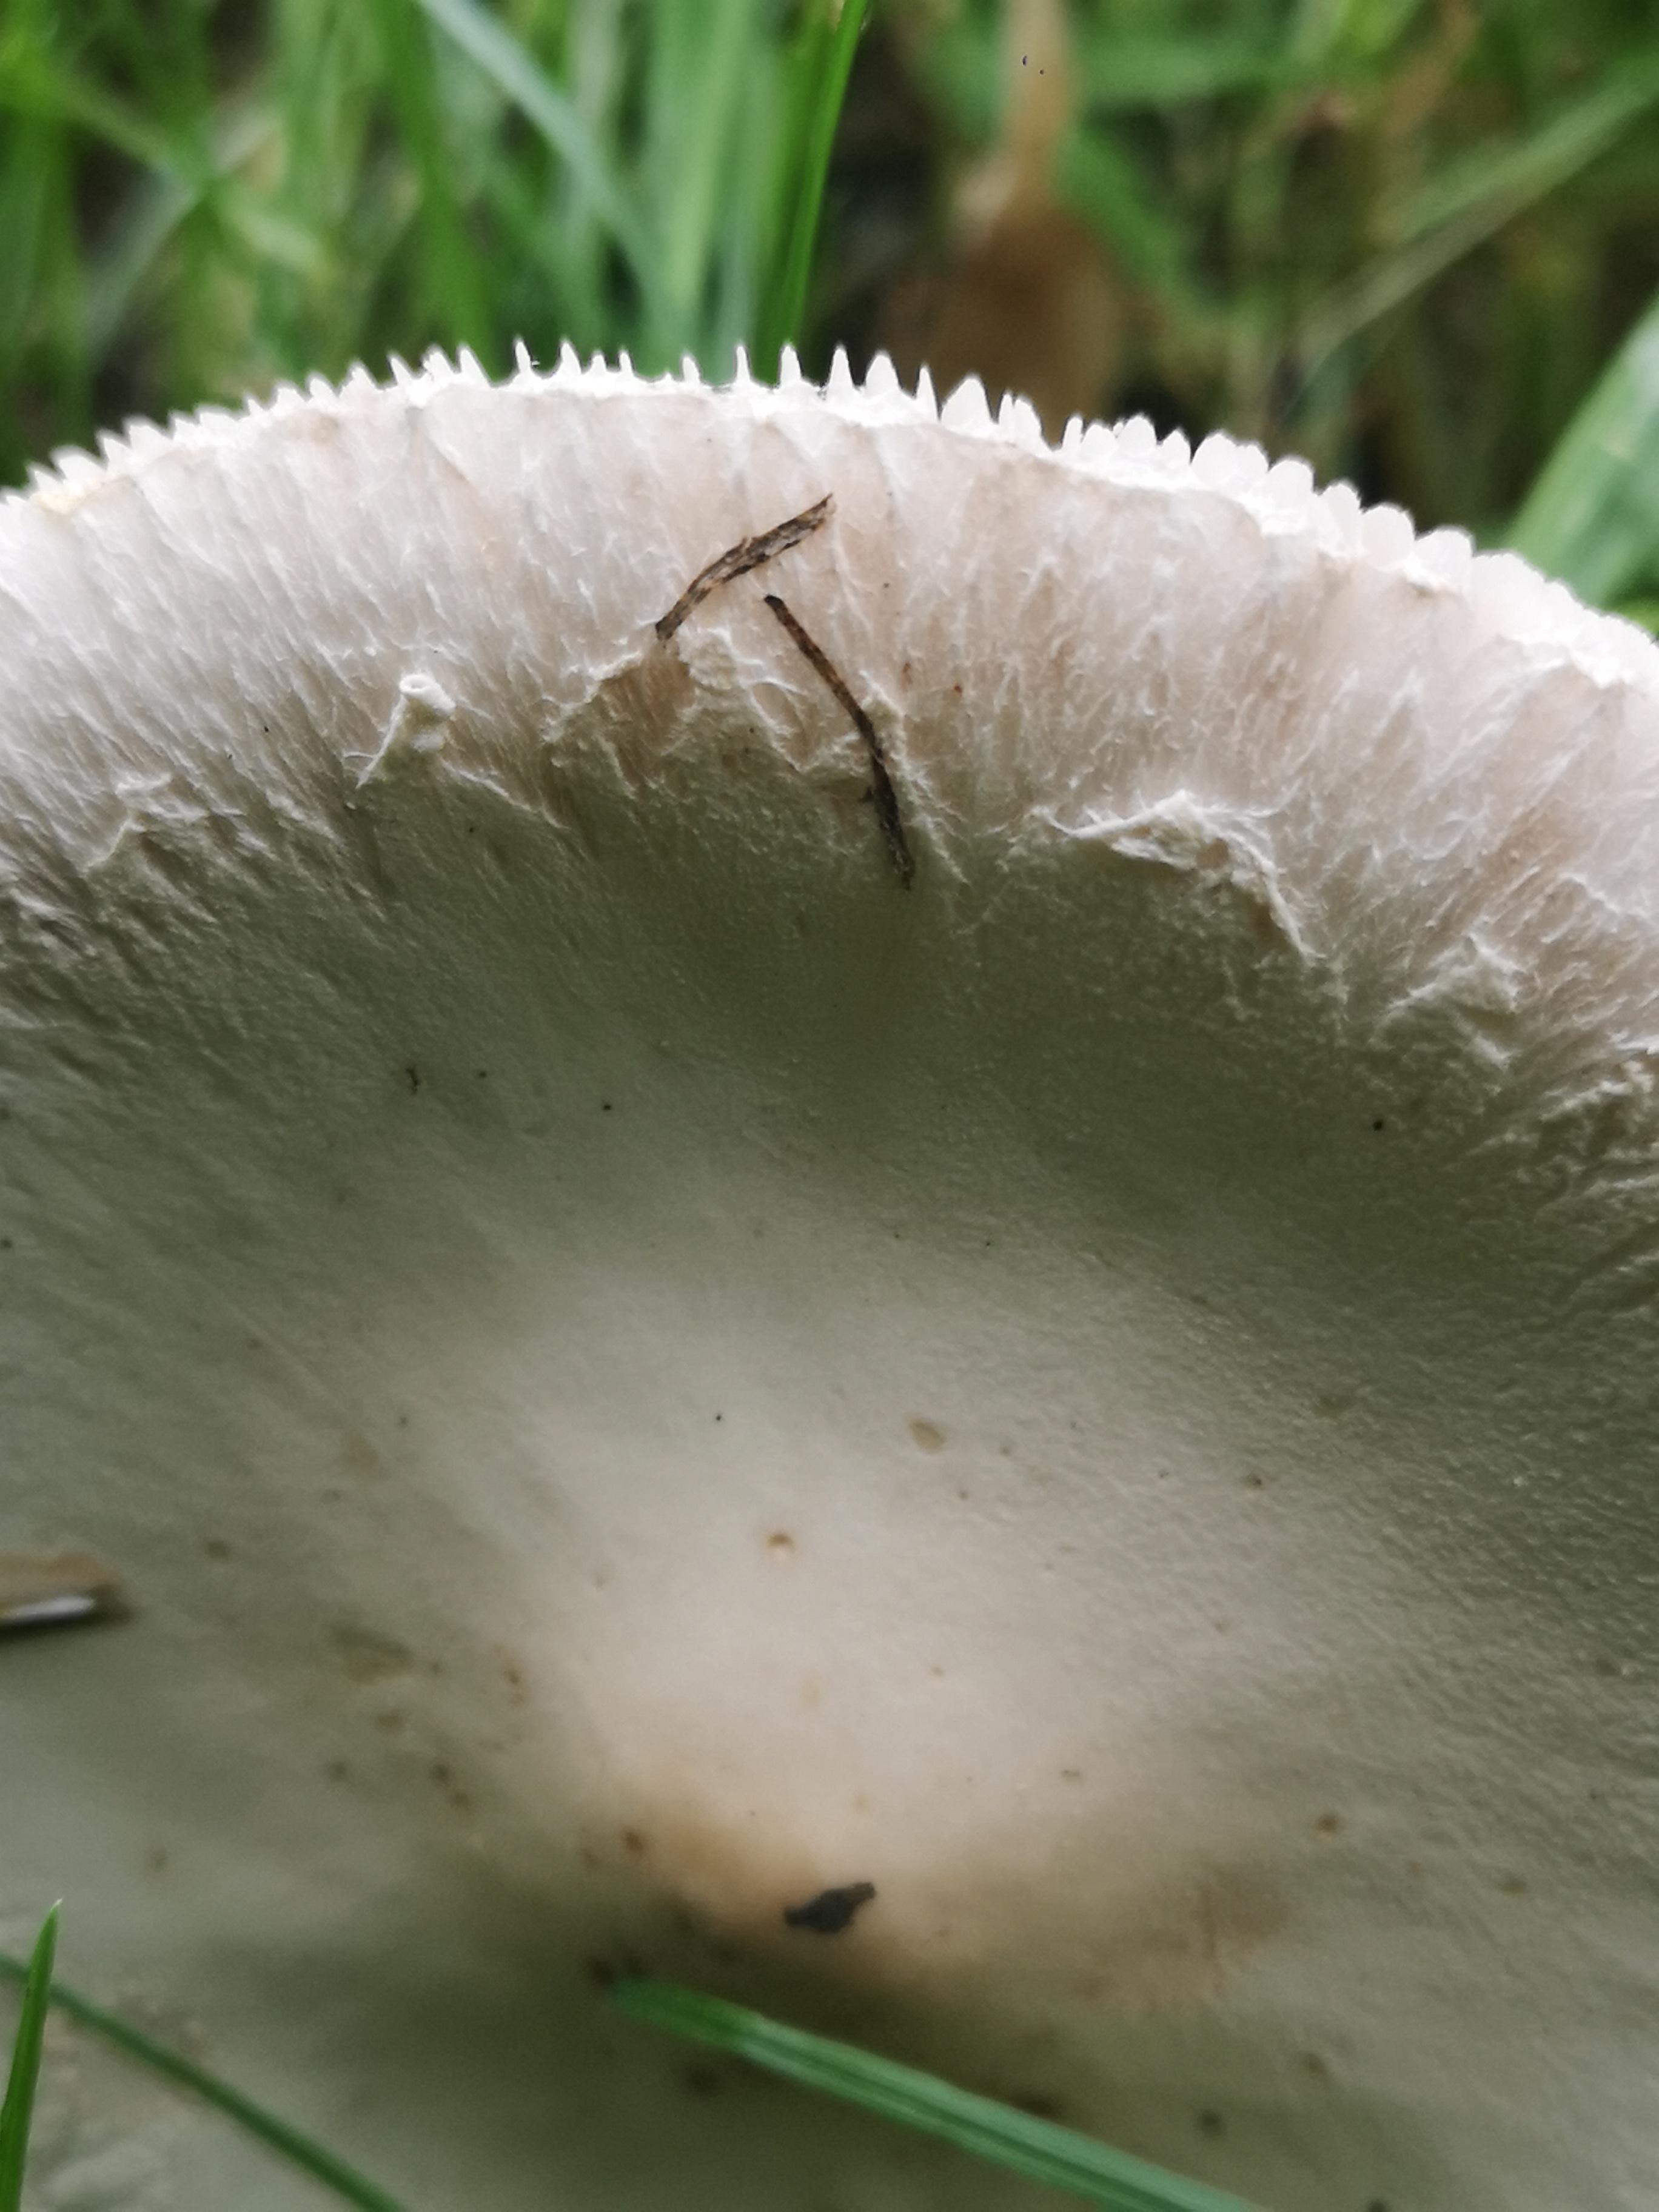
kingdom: Fungi
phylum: Basidiomycota
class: Agaricomycetes
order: Agaricales
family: Agaricaceae
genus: Macrolepiota
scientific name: Macrolepiota excoriata
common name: mark-kæmpeparasolhat
